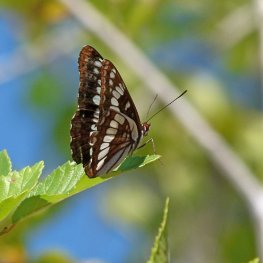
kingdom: Animalia
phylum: Arthropoda
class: Insecta
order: Lepidoptera
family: Nymphalidae
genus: Limenitis
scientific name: Limenitis lorquini
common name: Lorquin's Admiral
